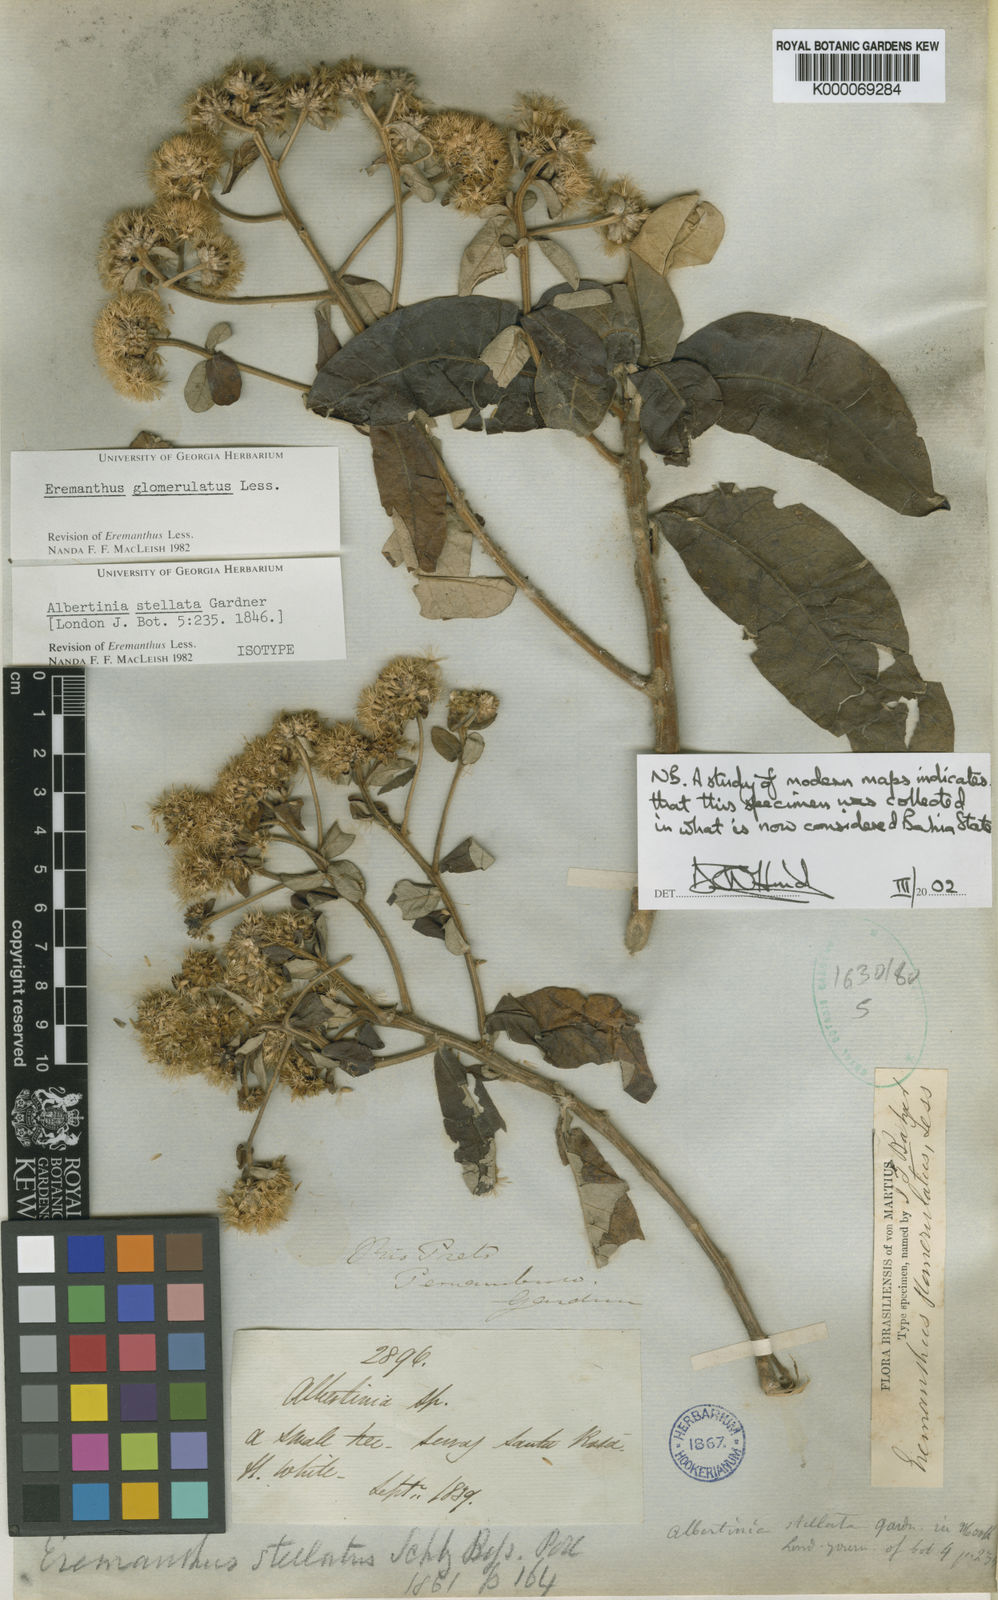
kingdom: Plantae
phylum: Tracheophyta
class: Magnoliopsida
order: Asterales
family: Asteraceae
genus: Eremanthus
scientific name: Eremanthus glomerulatus
